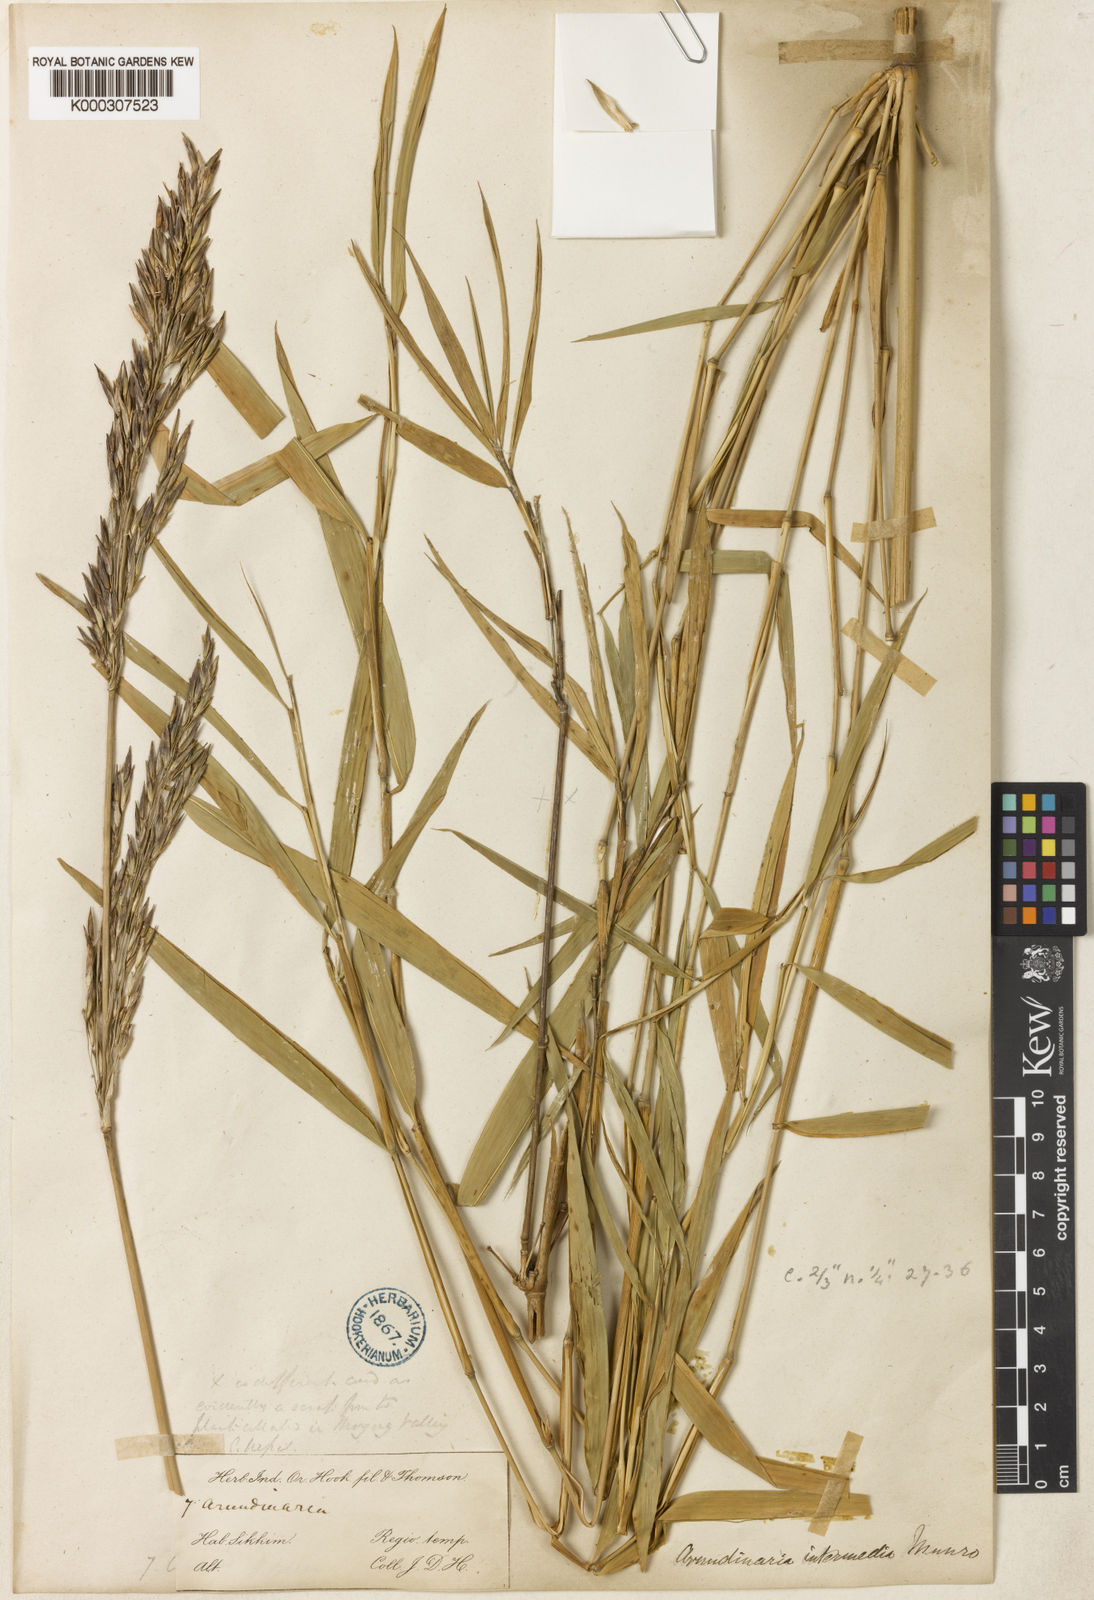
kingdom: Plantae
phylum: Tracheophyta
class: Liliopsida
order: Poales
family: Poaceae
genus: Drepanostachyum
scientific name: Drepanostachyum intermedium
